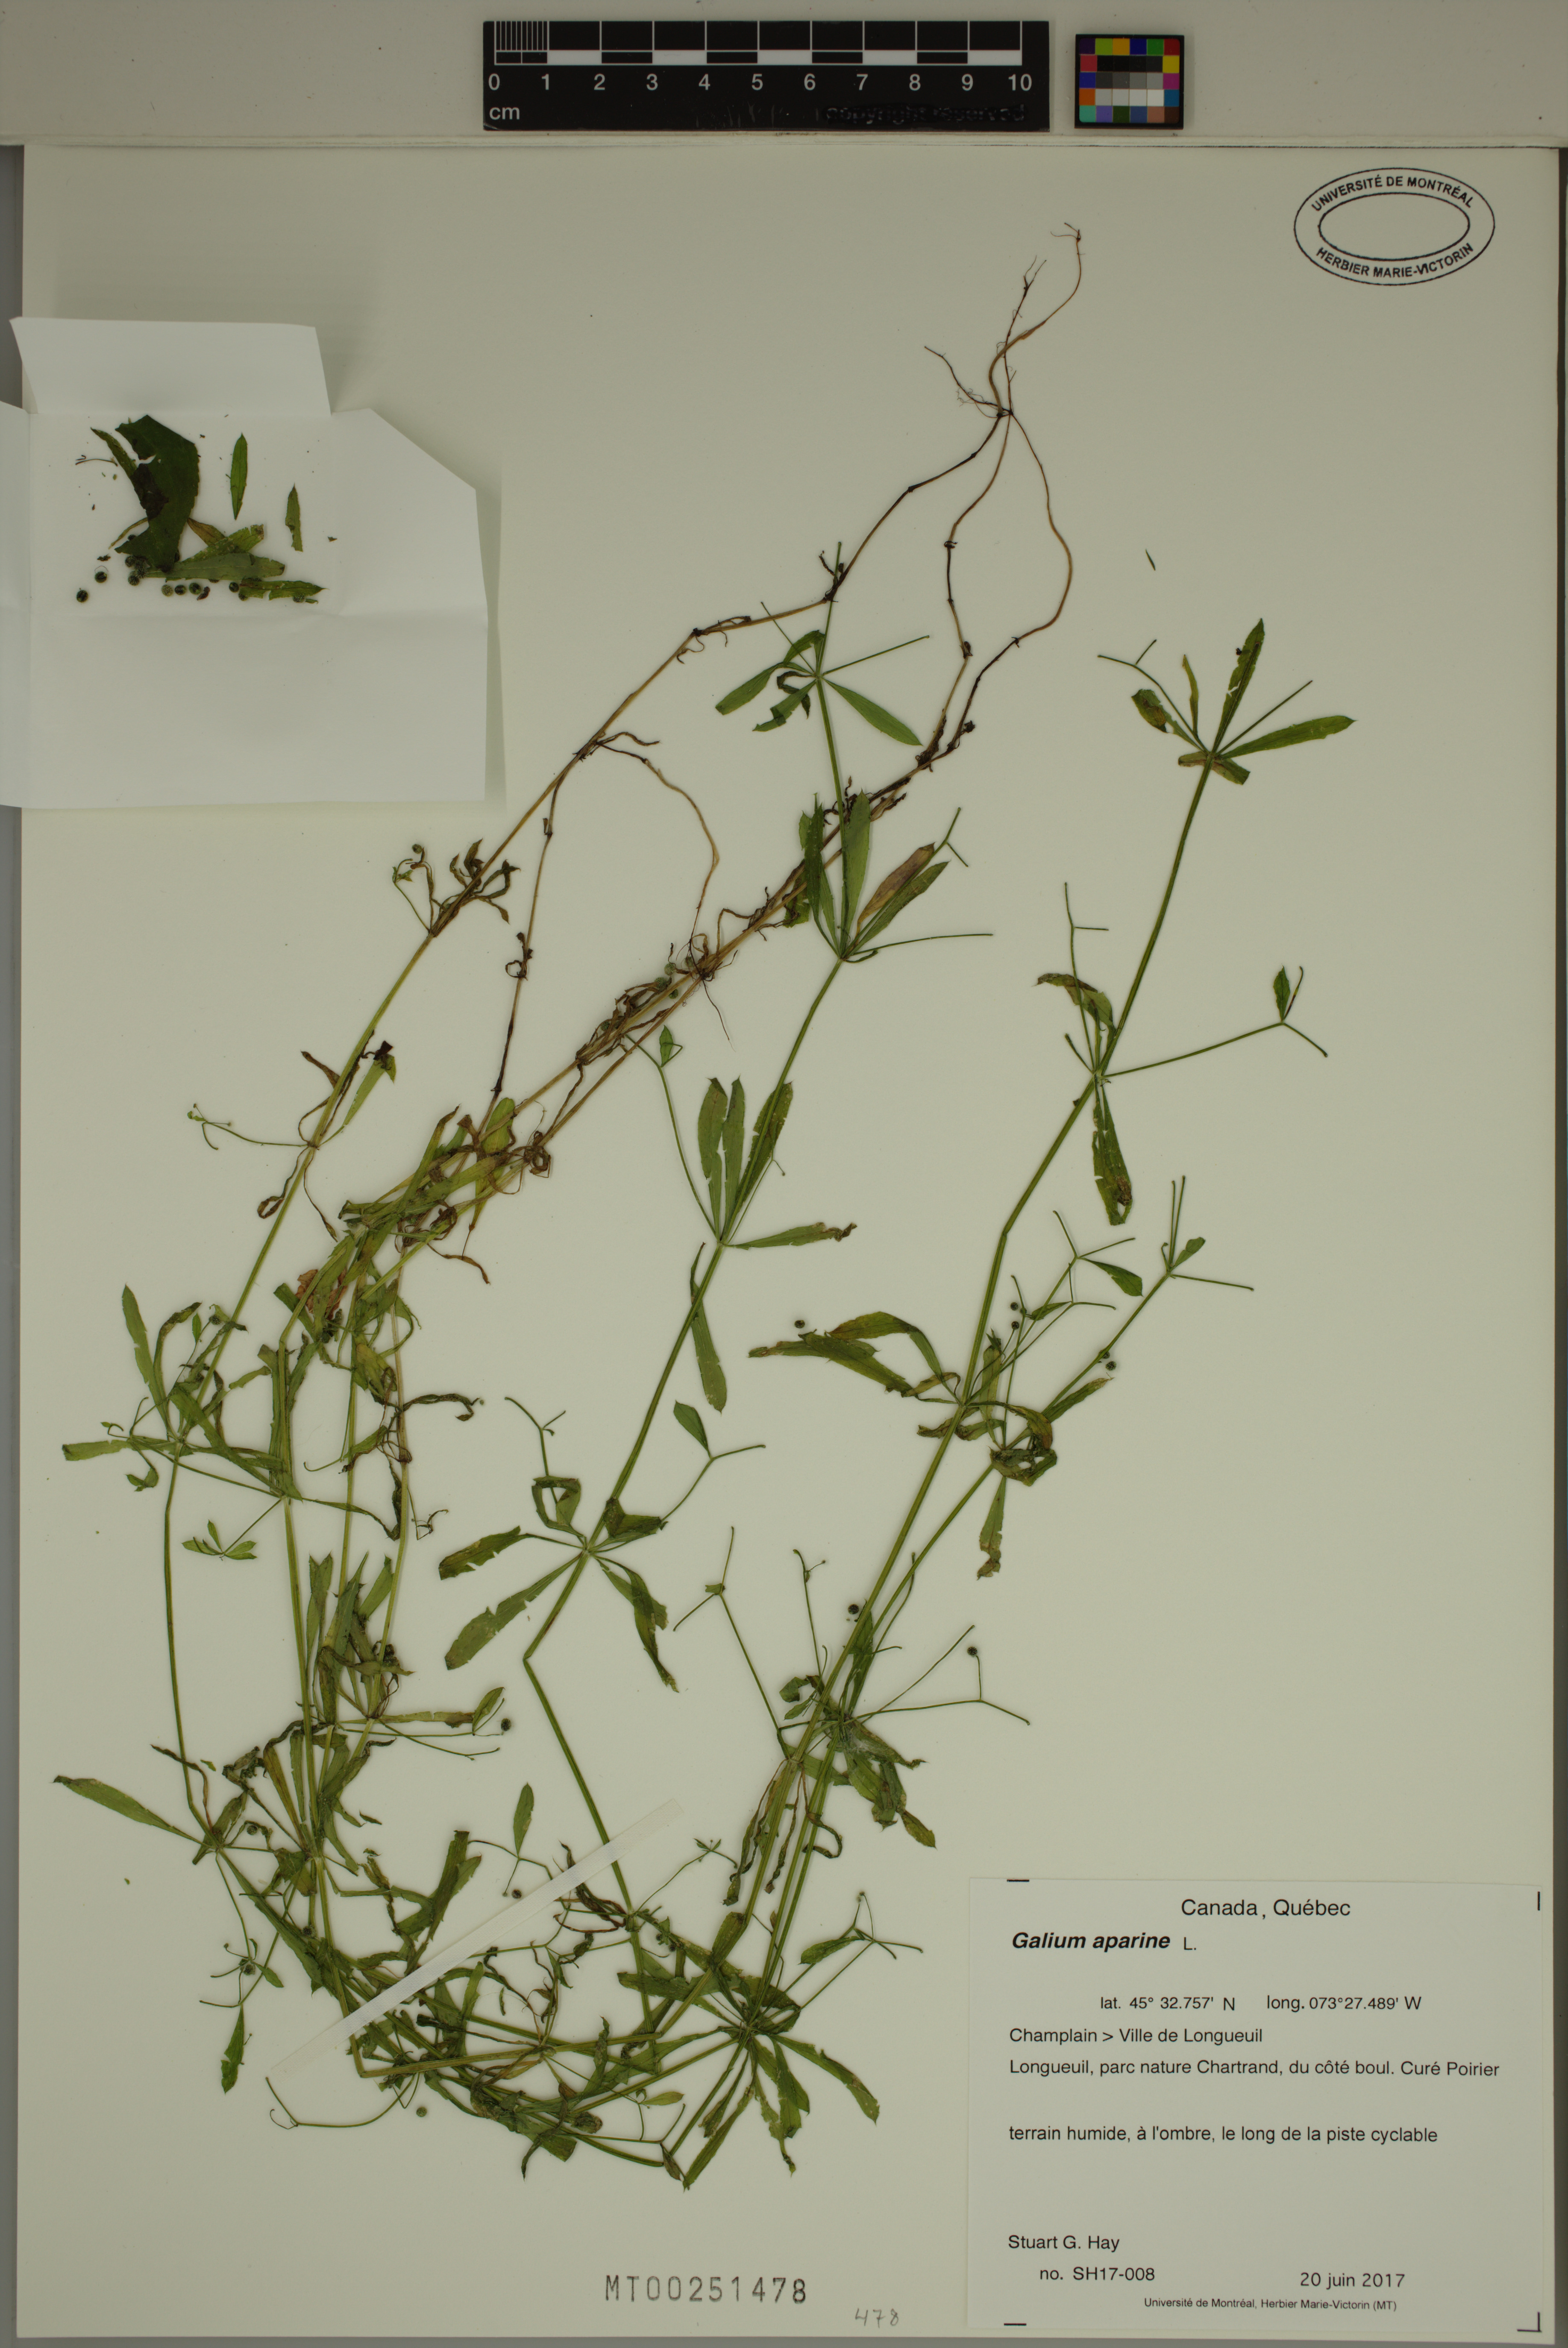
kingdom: Plantae
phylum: Tracheophyta
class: Magnoliopsida
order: Gentianales
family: Rubiaceae
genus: Galium
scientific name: Galium aparine
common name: Cleavers
